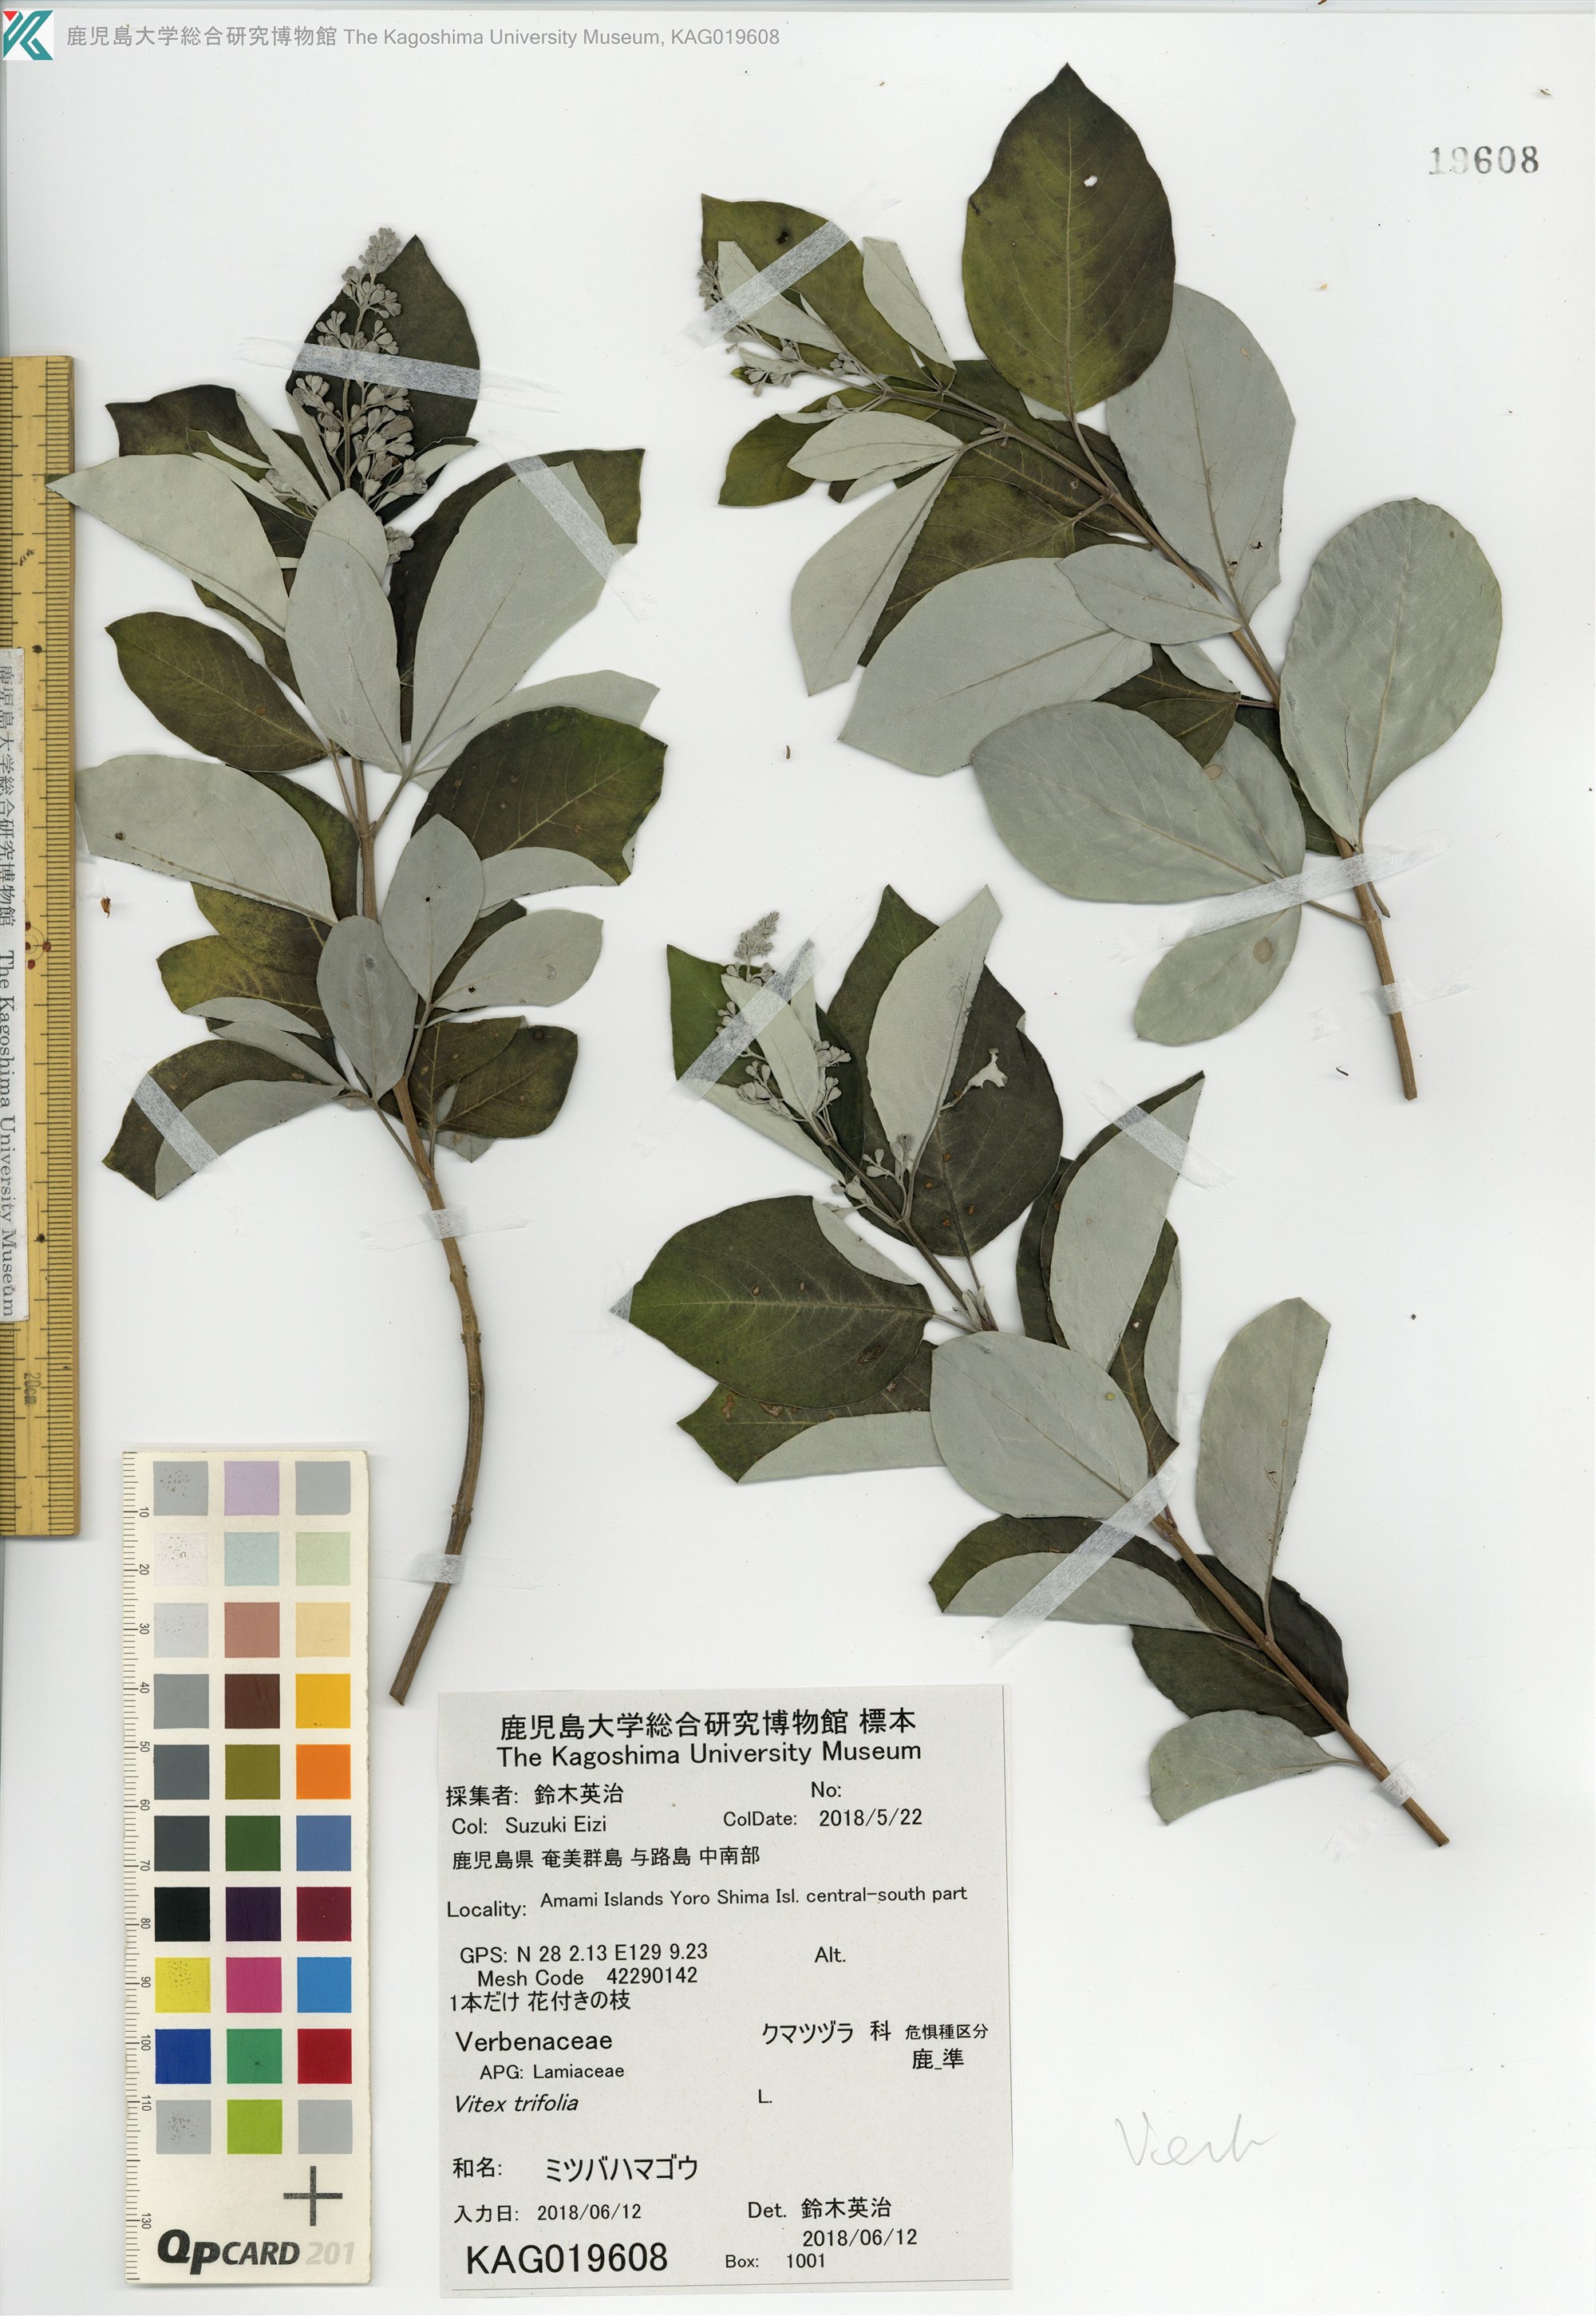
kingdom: Plantae
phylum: Tracheophyta
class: Magnoliopsida
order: Lamiales
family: Lamiaceae
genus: Vitex
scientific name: Vitex trifolia
